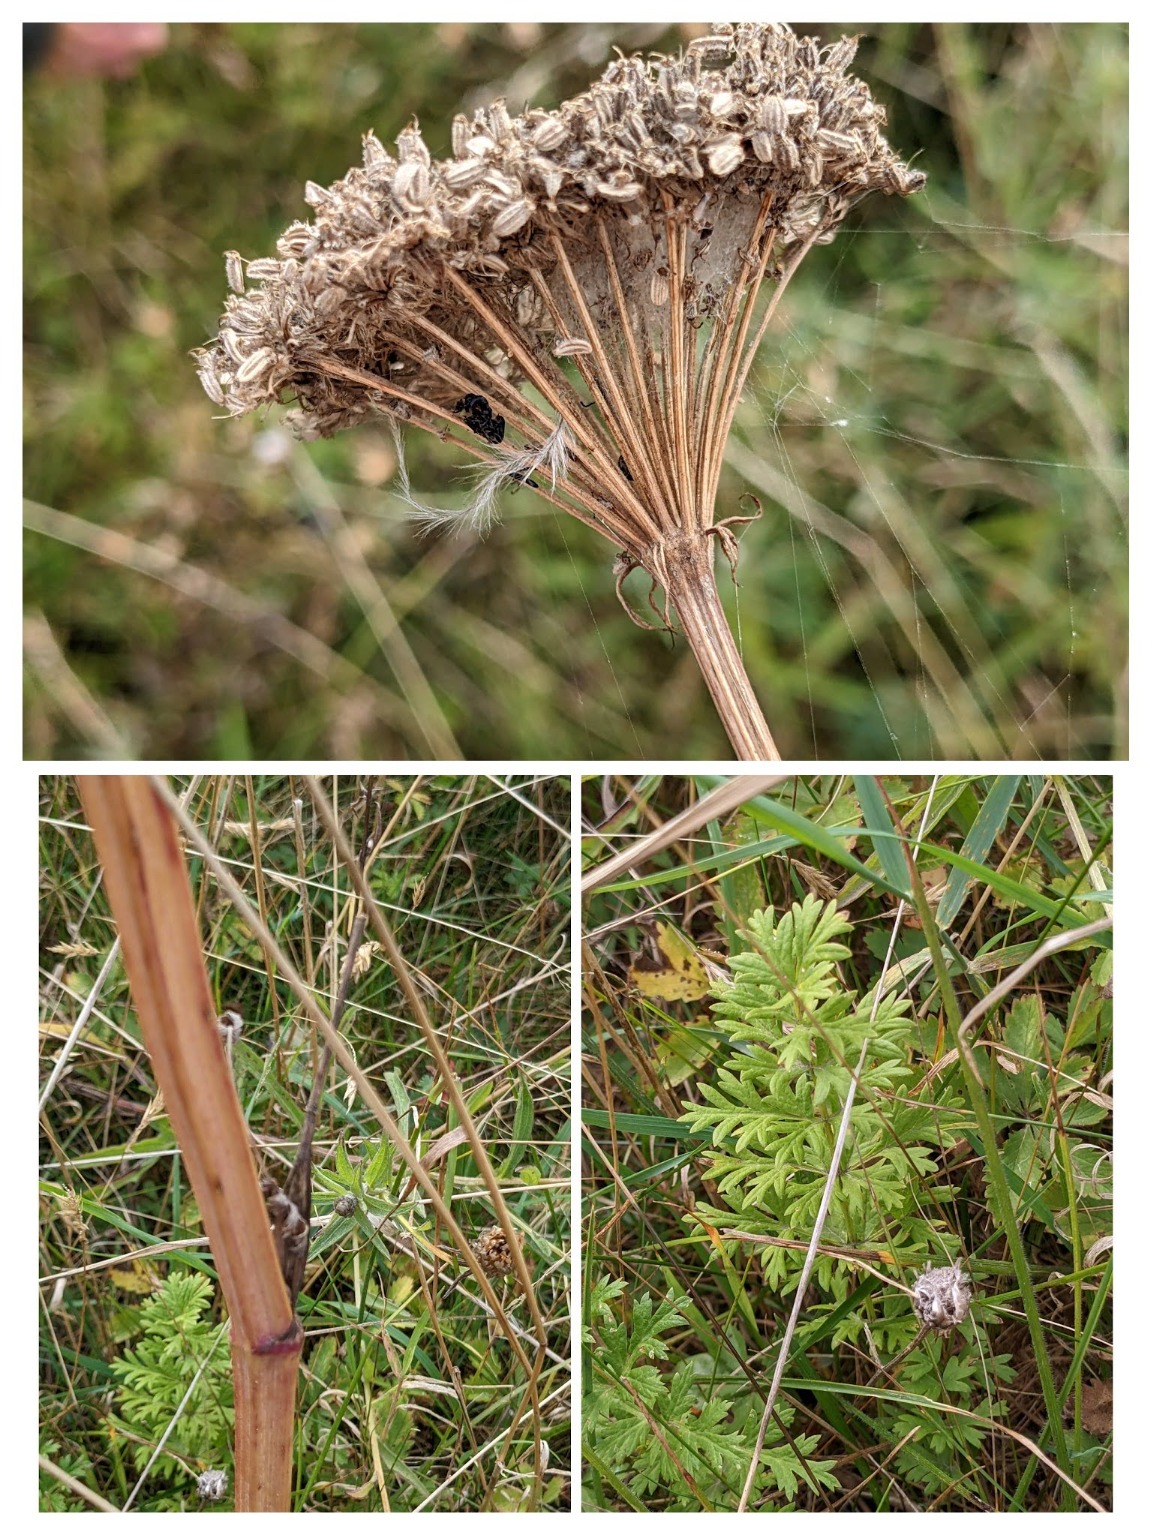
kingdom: Plantae
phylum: Tracheophyta
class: Magnoliopsida
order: Apiales
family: Apiaceae
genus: Seseli
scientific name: Seseli libanotis
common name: Hjorterod
